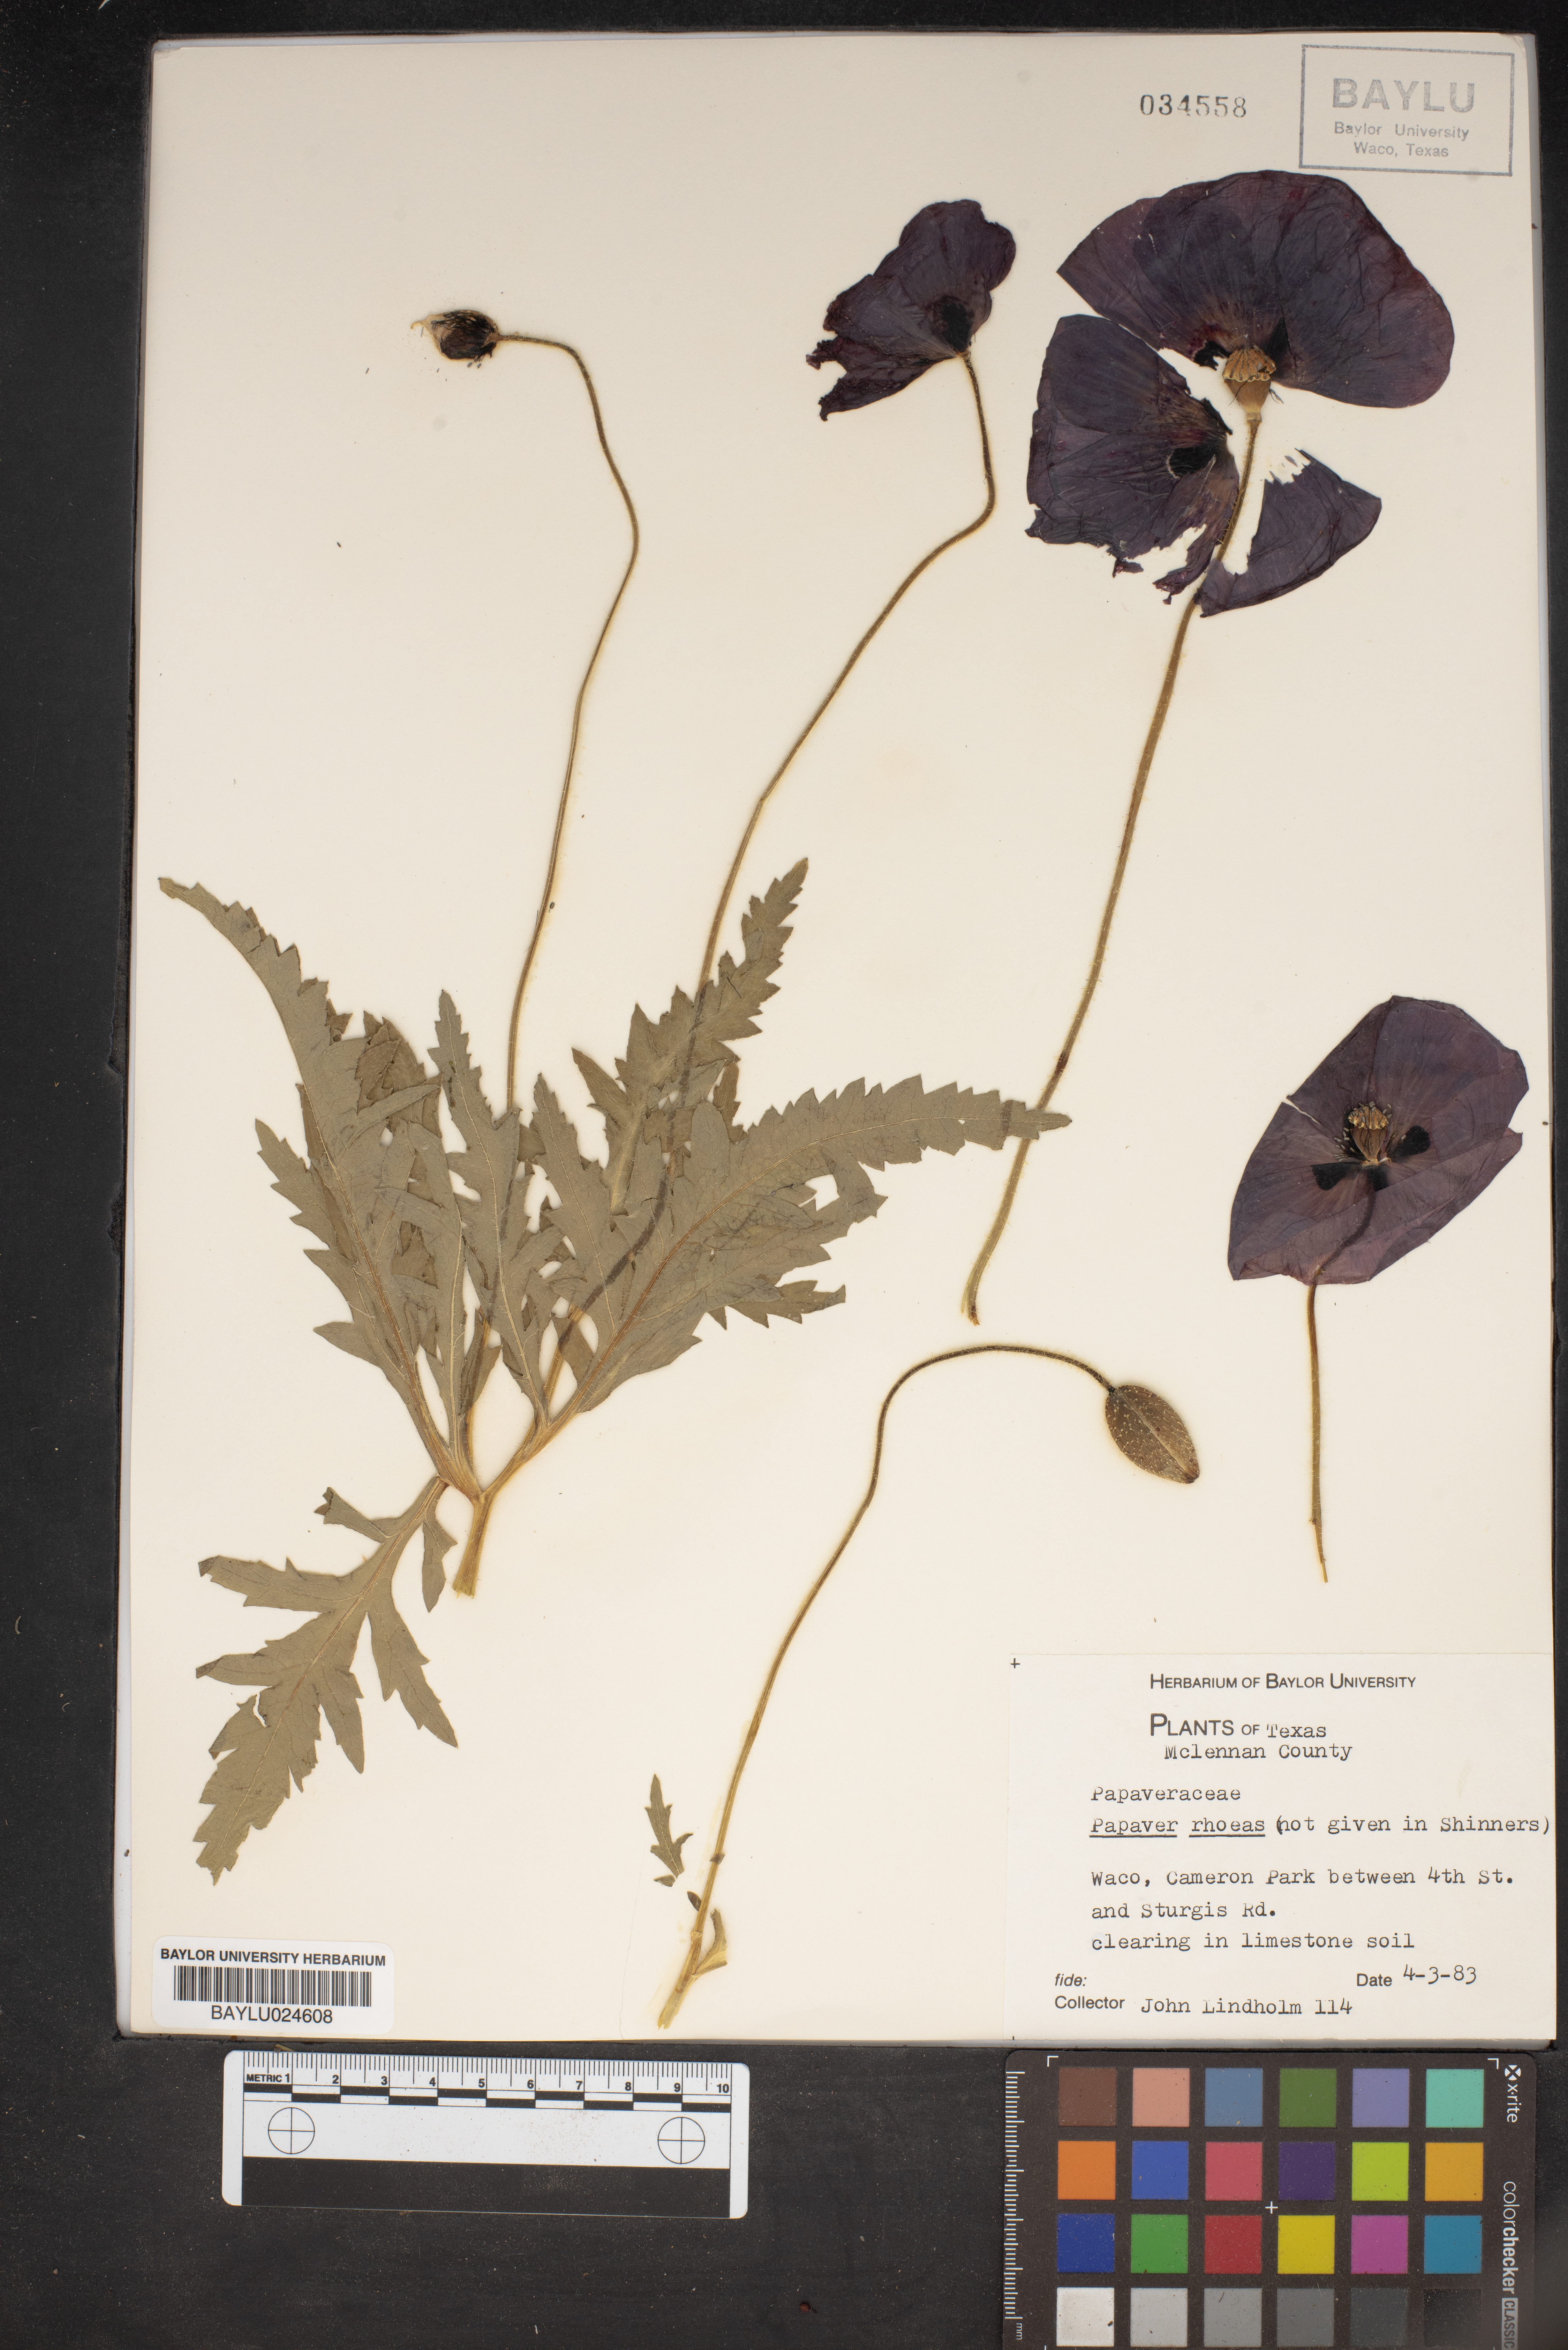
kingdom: Plantae
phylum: Tracheophyta
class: Magnoliopsida
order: Ranunculales
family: Papaveraceae
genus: Papaver
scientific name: Papaver rhoeas
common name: Corn poppy
